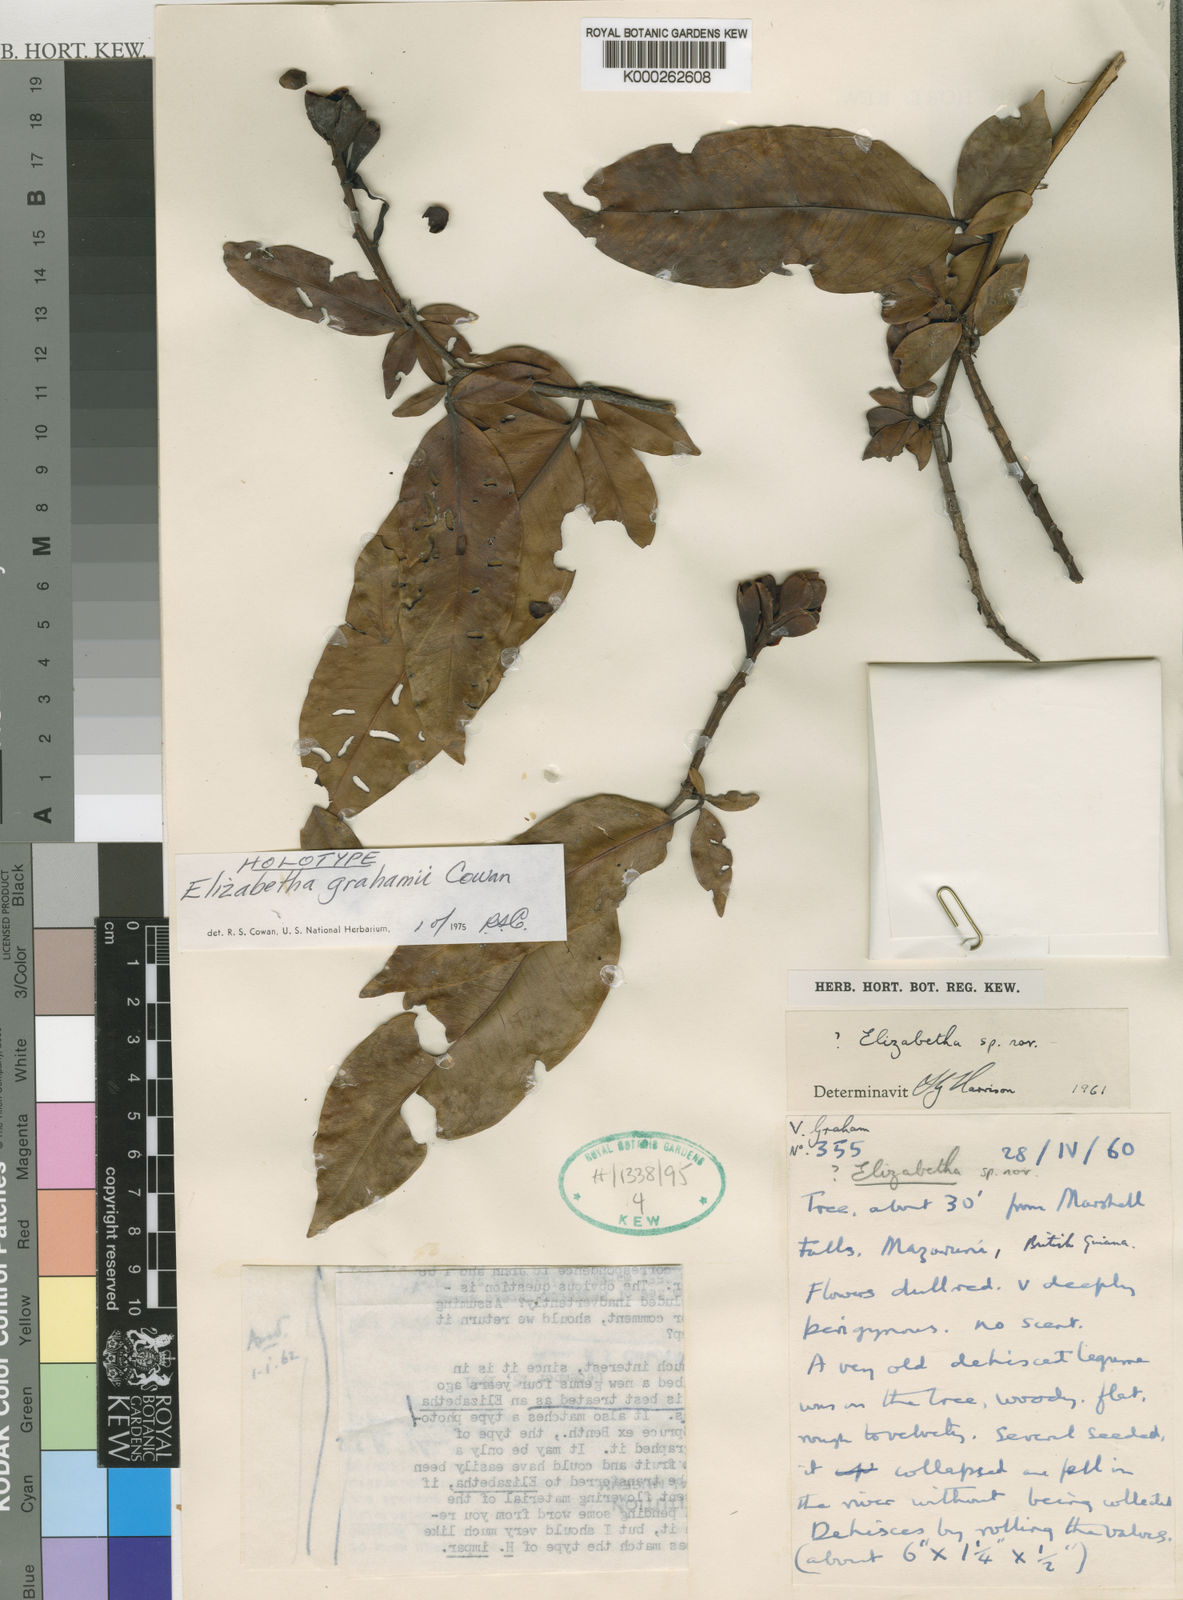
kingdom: Plantae
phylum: Tracheophyta
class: Magnoliopsida
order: Fabales
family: Fabaceae
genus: Paloue
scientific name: Paloue grahamiae
